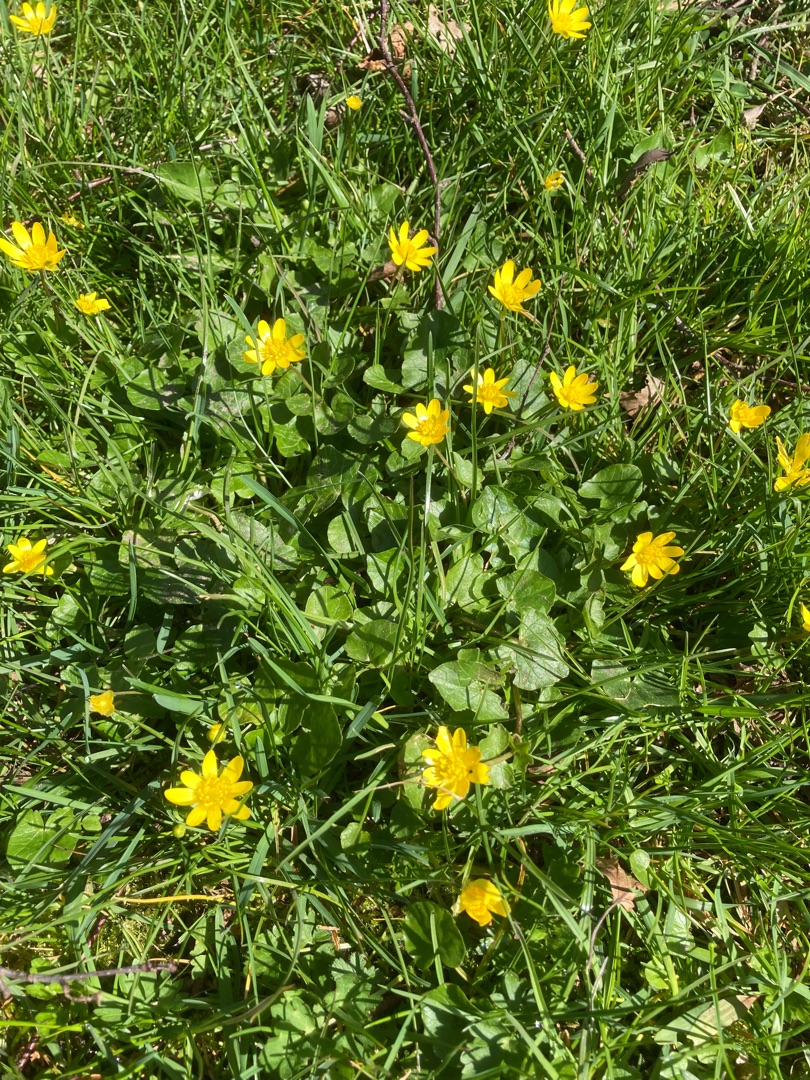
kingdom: Plantae
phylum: Tracheophyta
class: Magnoliopsida
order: Ranunculales
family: Ranunculaceae
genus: Ficaria
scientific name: Ficaria verna
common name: Vorterod
